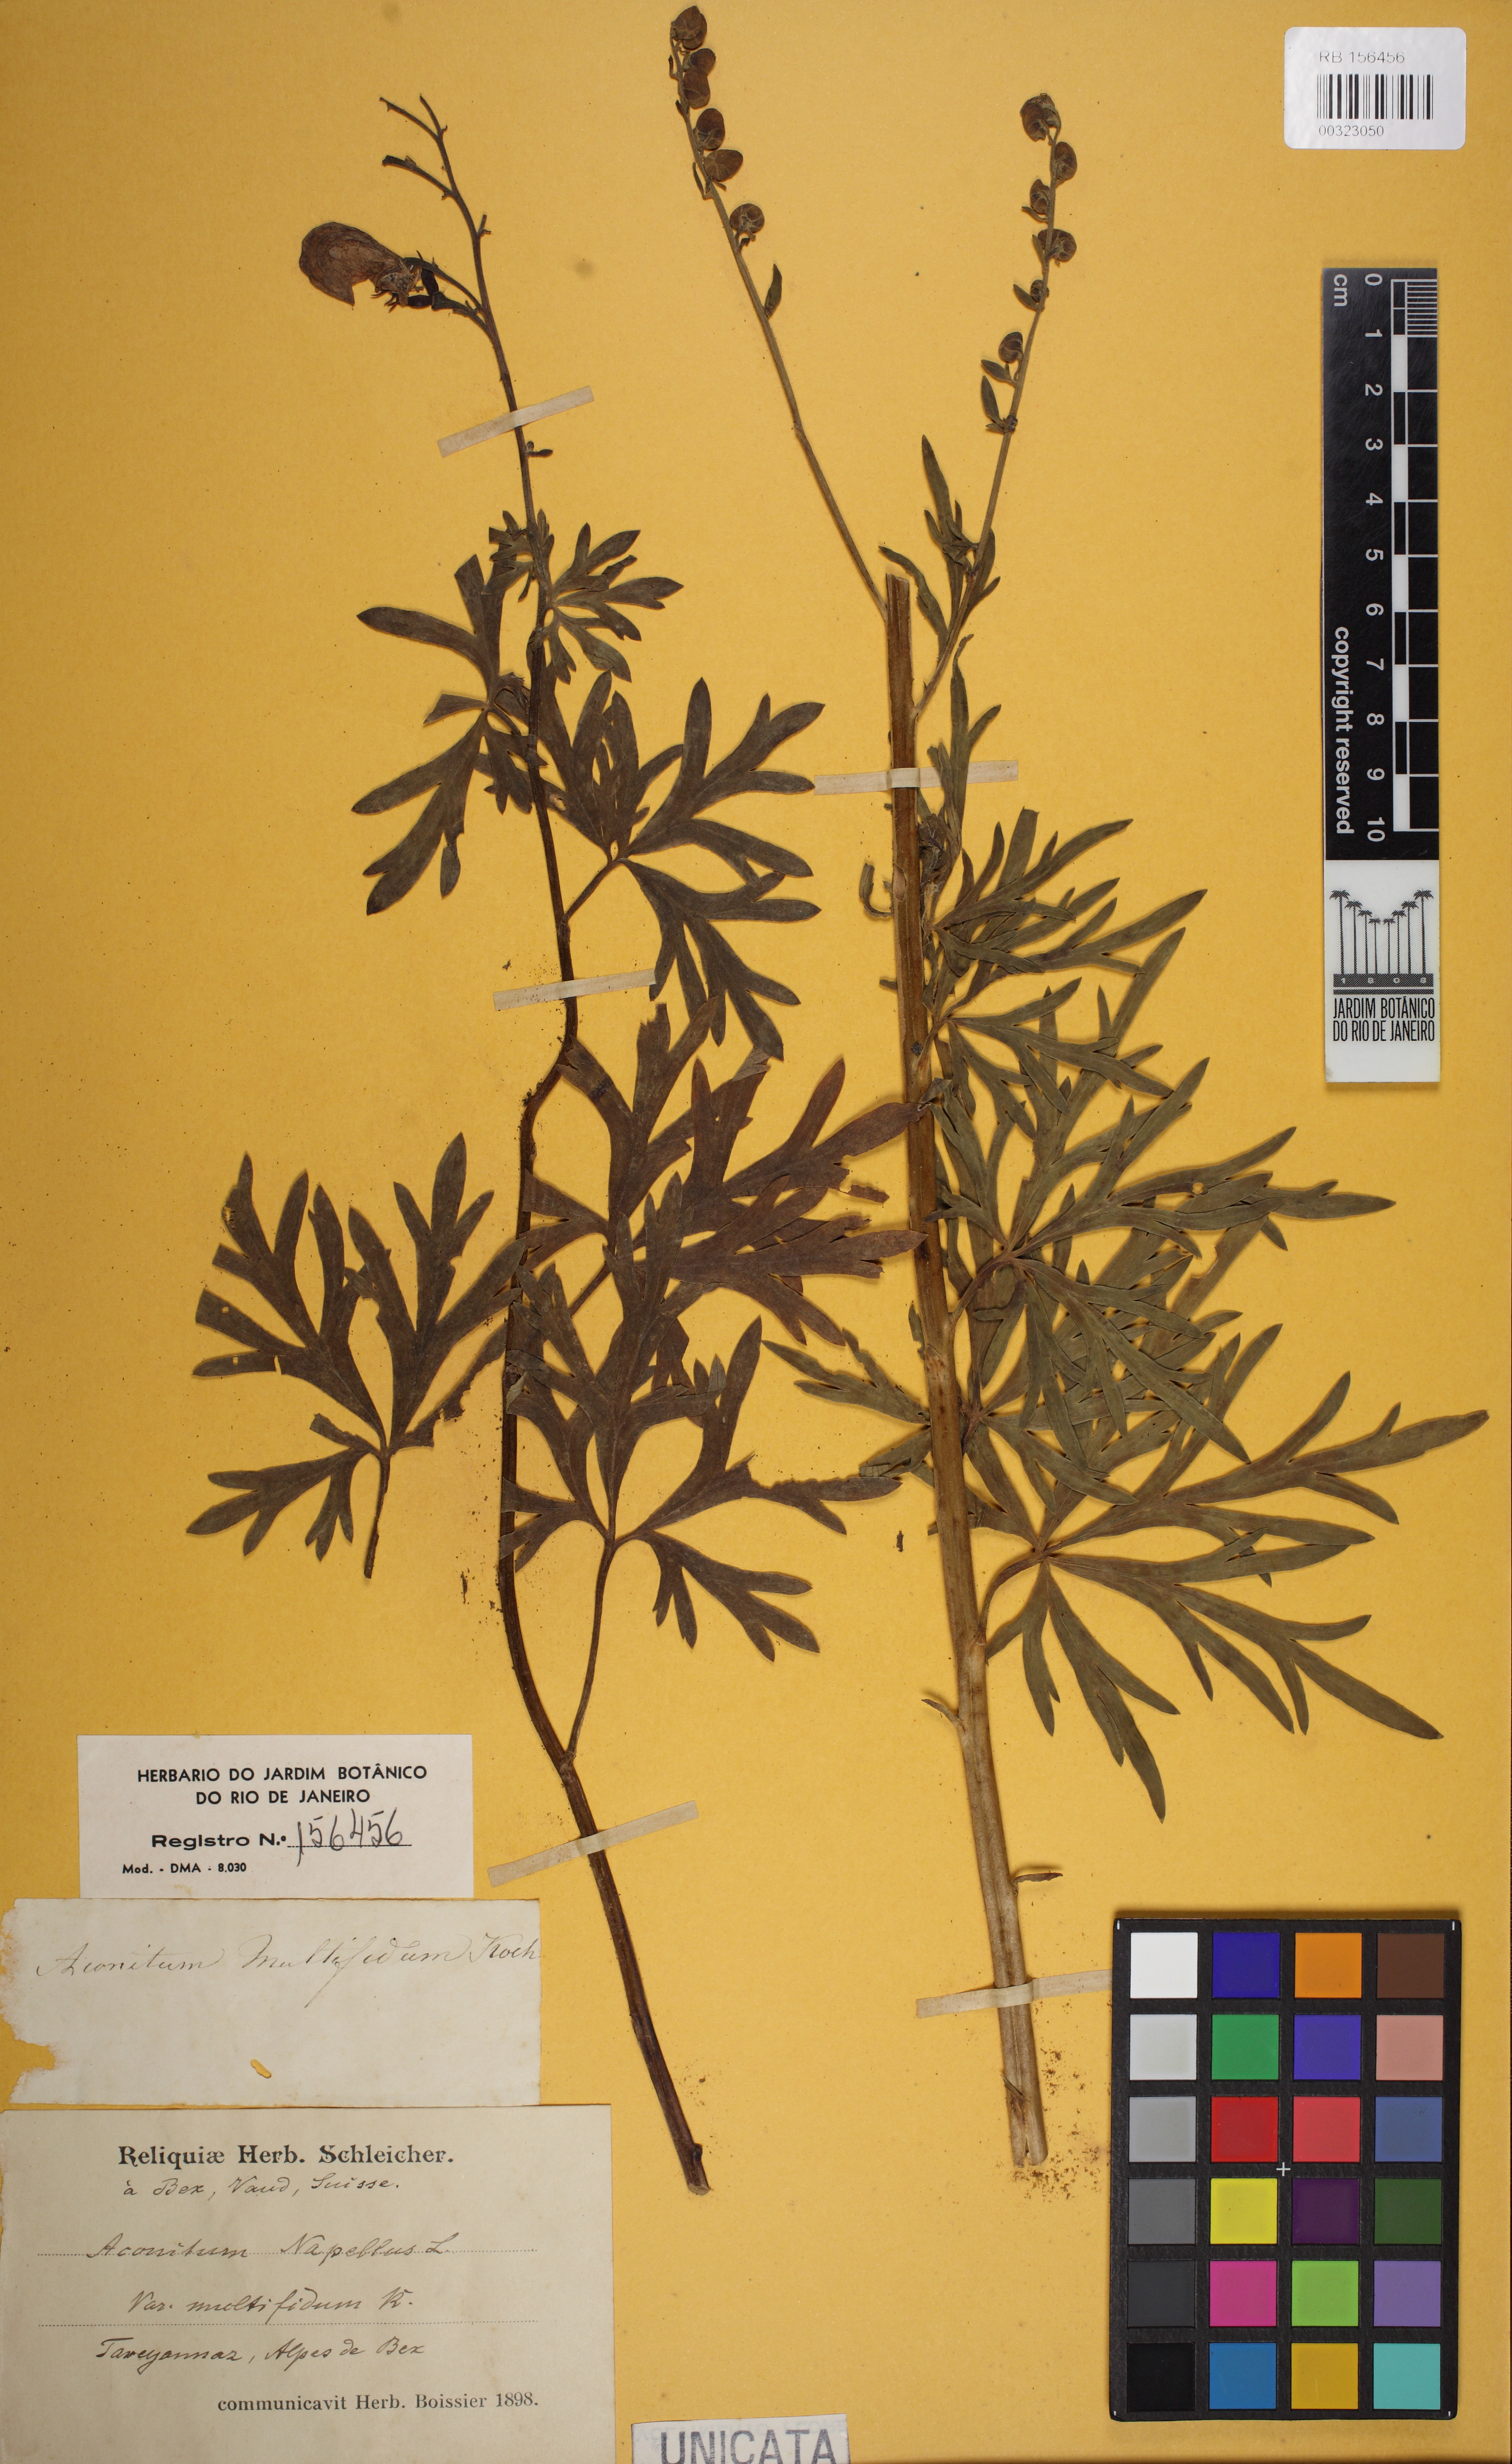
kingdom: Plantae
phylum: Tracheophyta
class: Magnoliopsida
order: Ranunculales
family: Ranunculaceae
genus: Aconitum
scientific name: Aconitum plicatum
